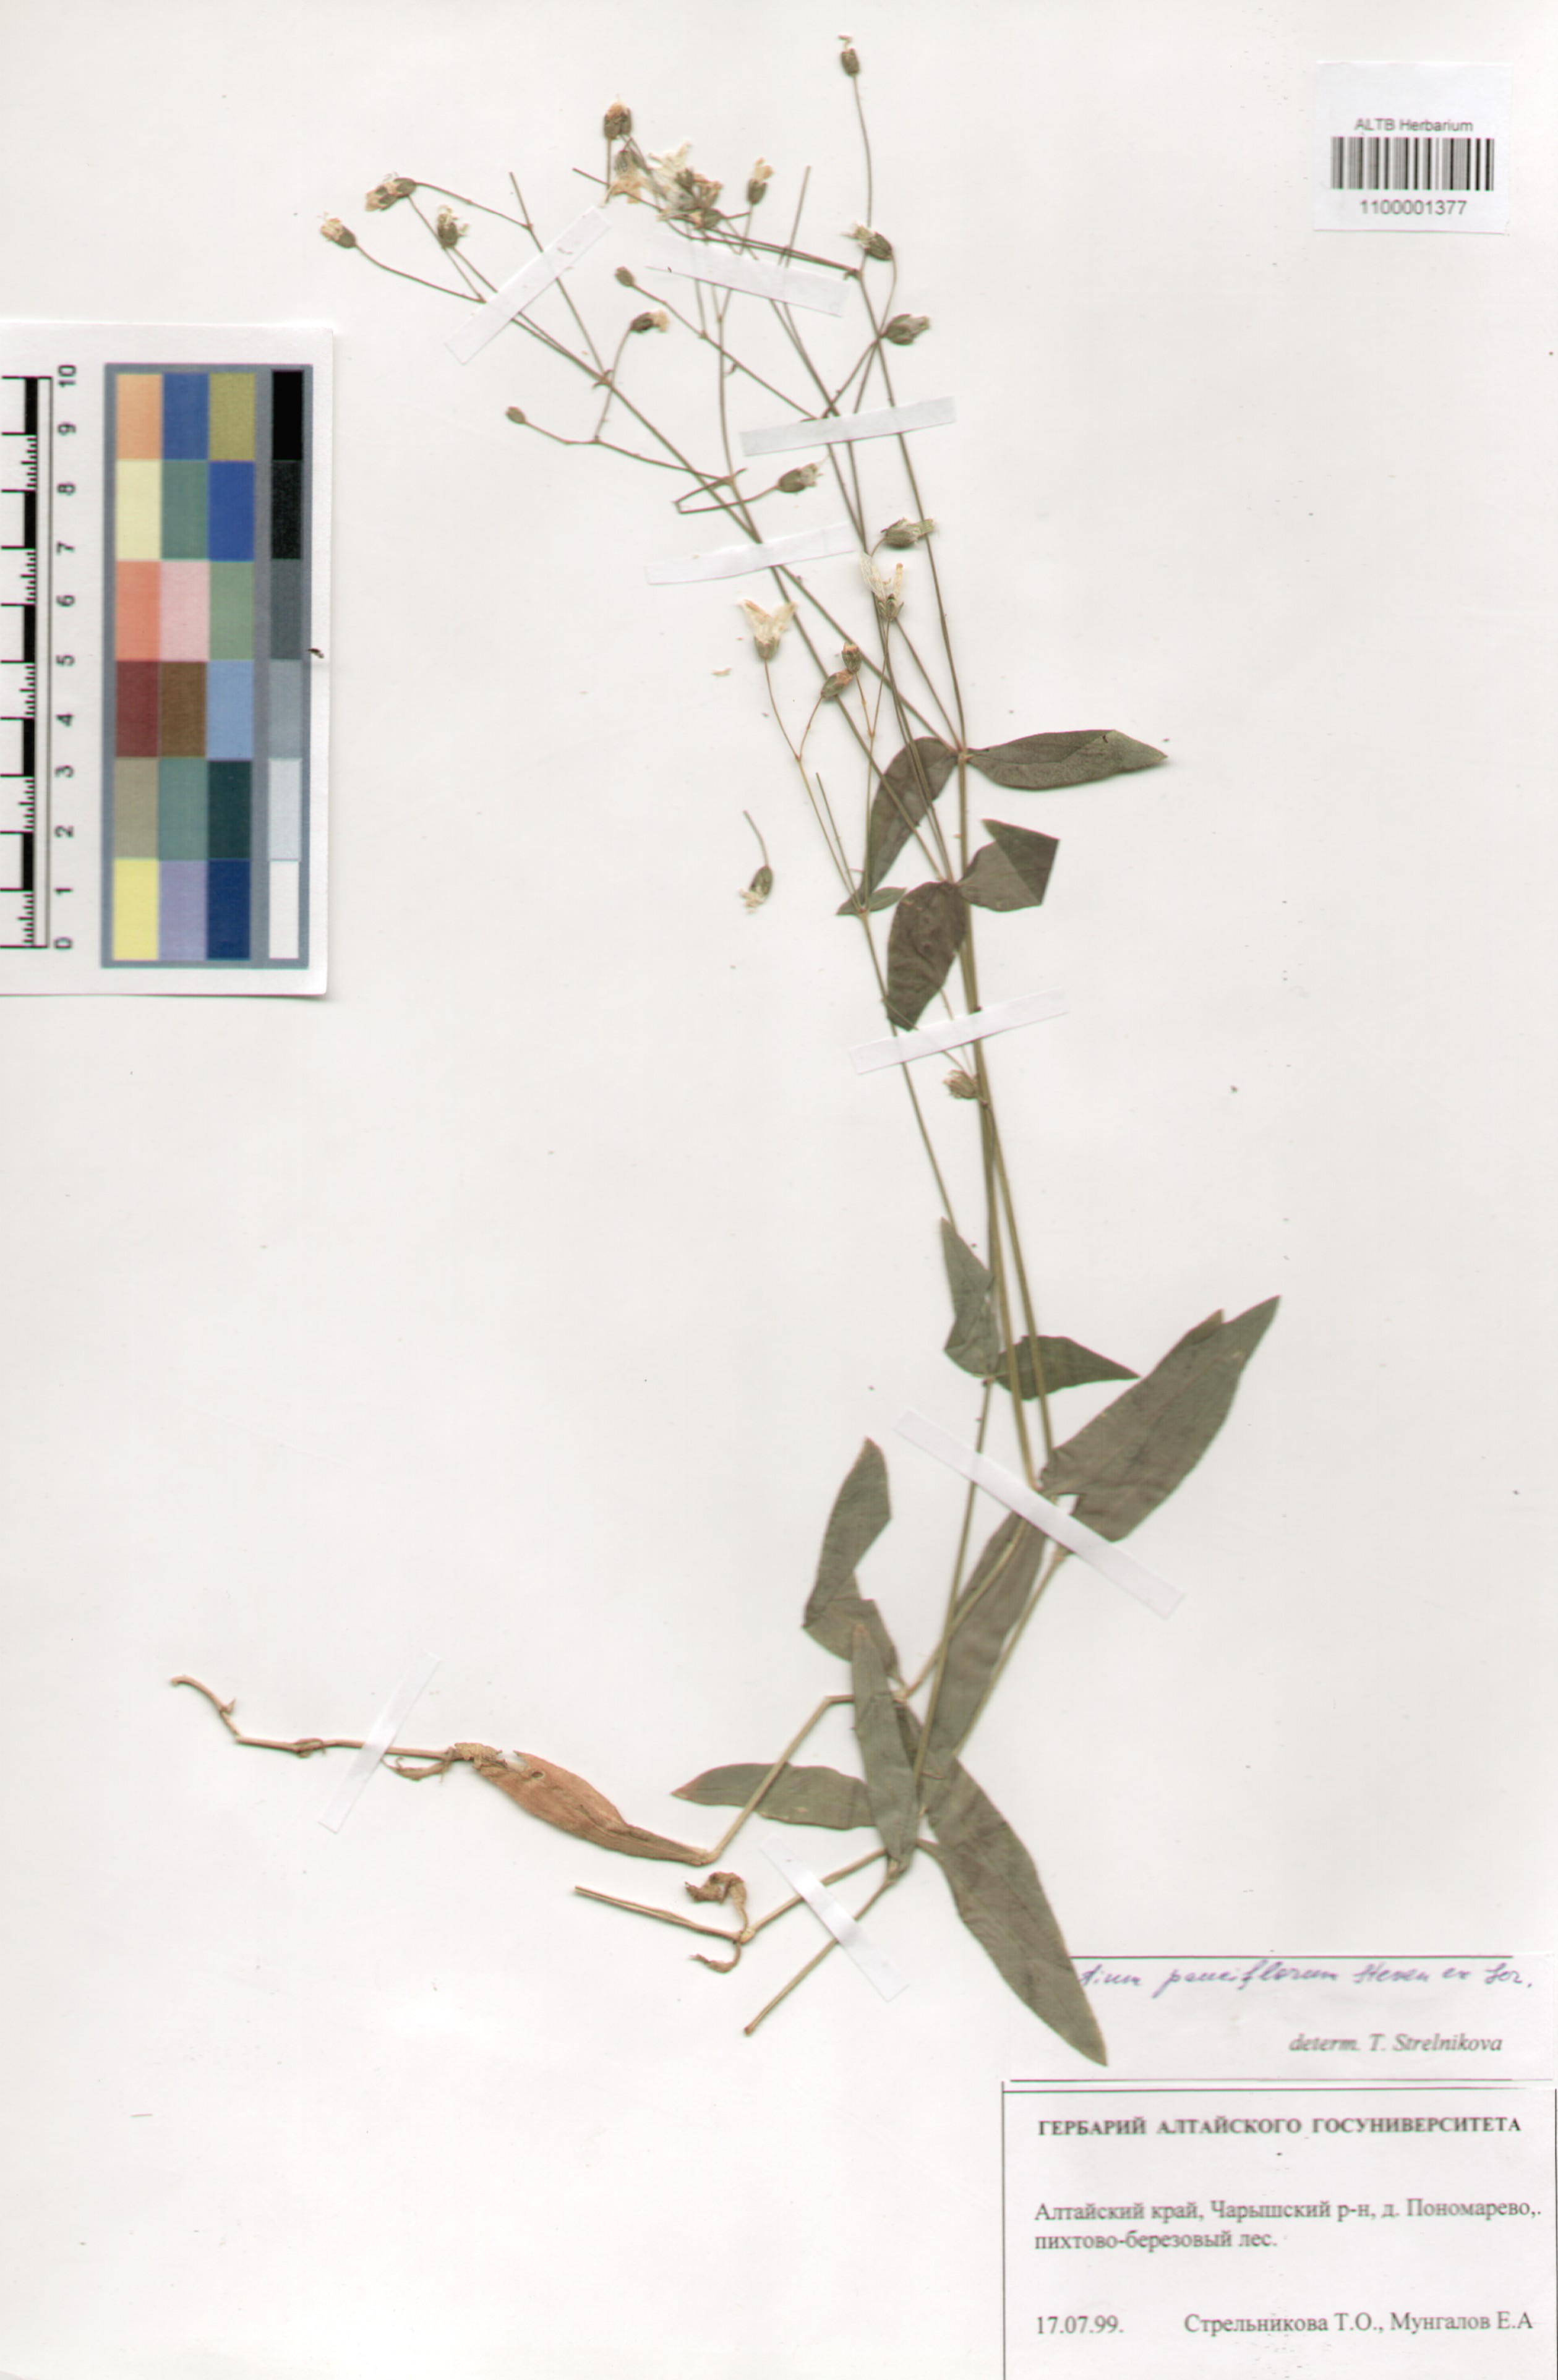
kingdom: Plantae
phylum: Tracheophyta
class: Magnoliopsida
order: Caryophyllales
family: Caryophyllaceae
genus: Cerastium
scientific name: Cerastium pauciflorum
